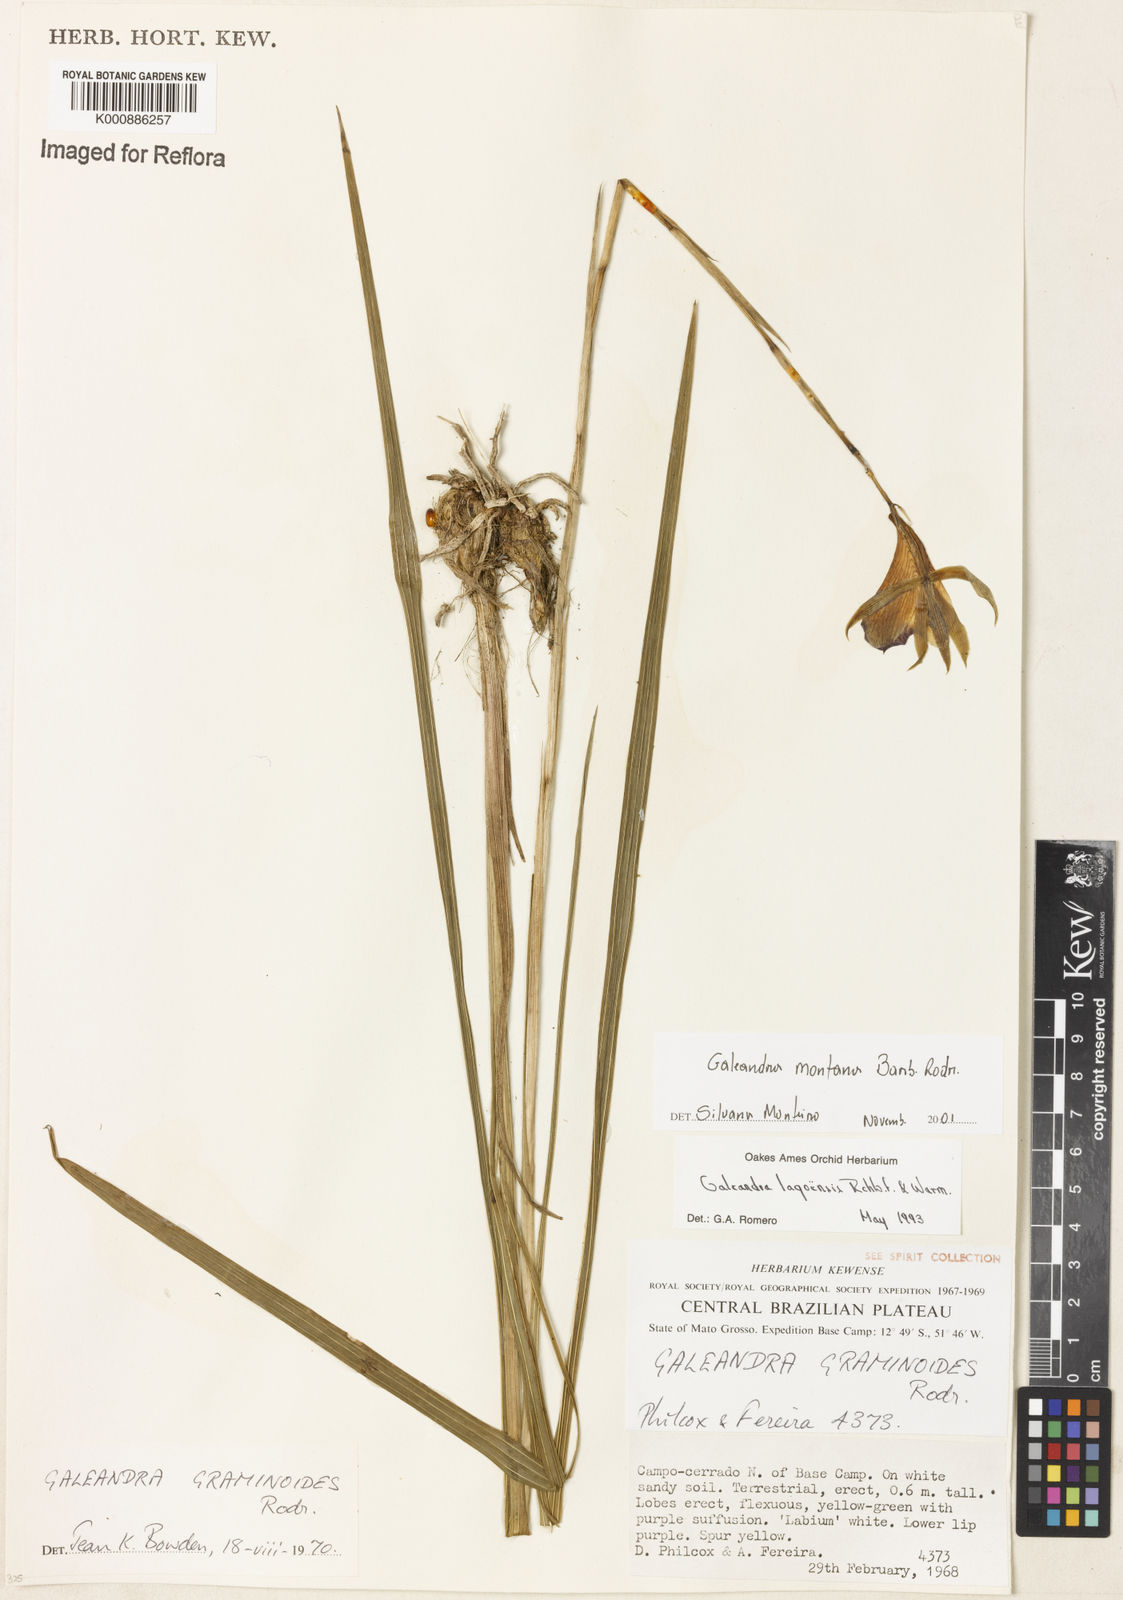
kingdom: Plantae
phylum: Tracheophyta
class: Liliopsida
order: Asparagales
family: Orchidaceae
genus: Galeandra
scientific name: Galeandra montana
